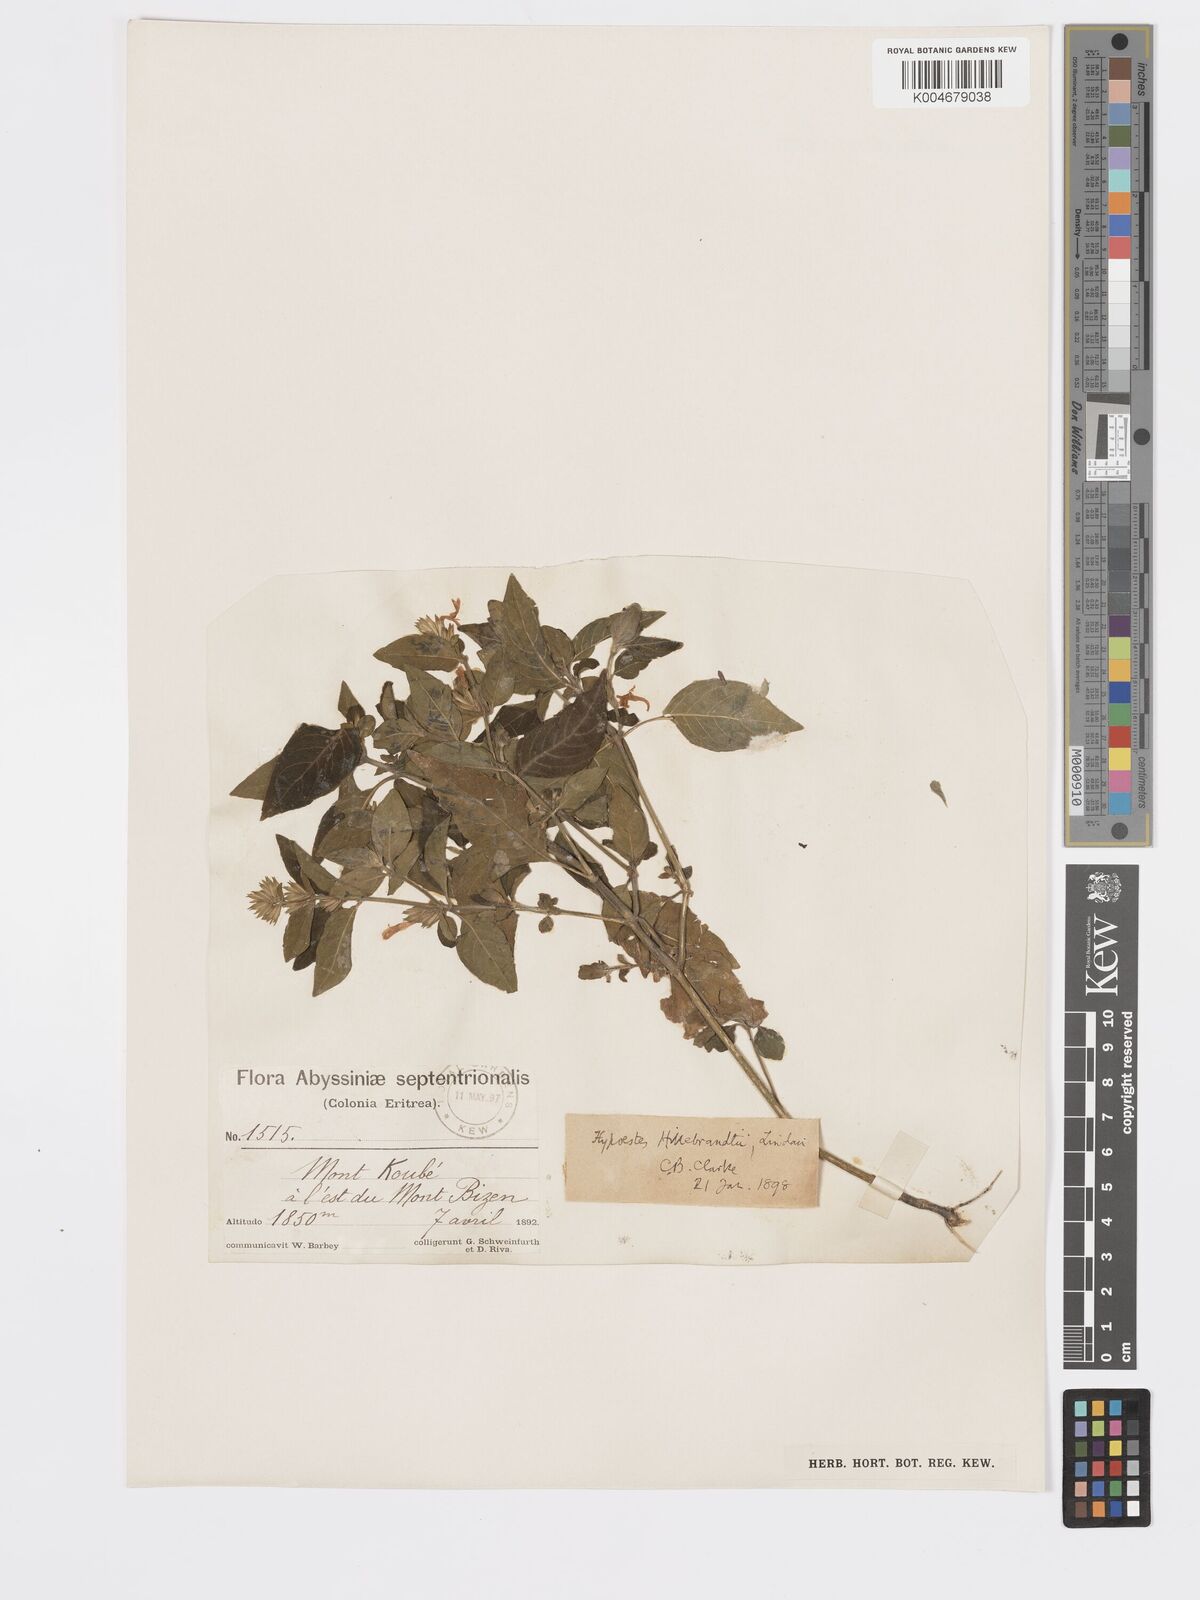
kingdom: Plantae
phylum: Tracheophyta
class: Magnoliopsida
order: Lamiales
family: Acanthaceae
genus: Hypoestes
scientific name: Hypoestes forskaolii
